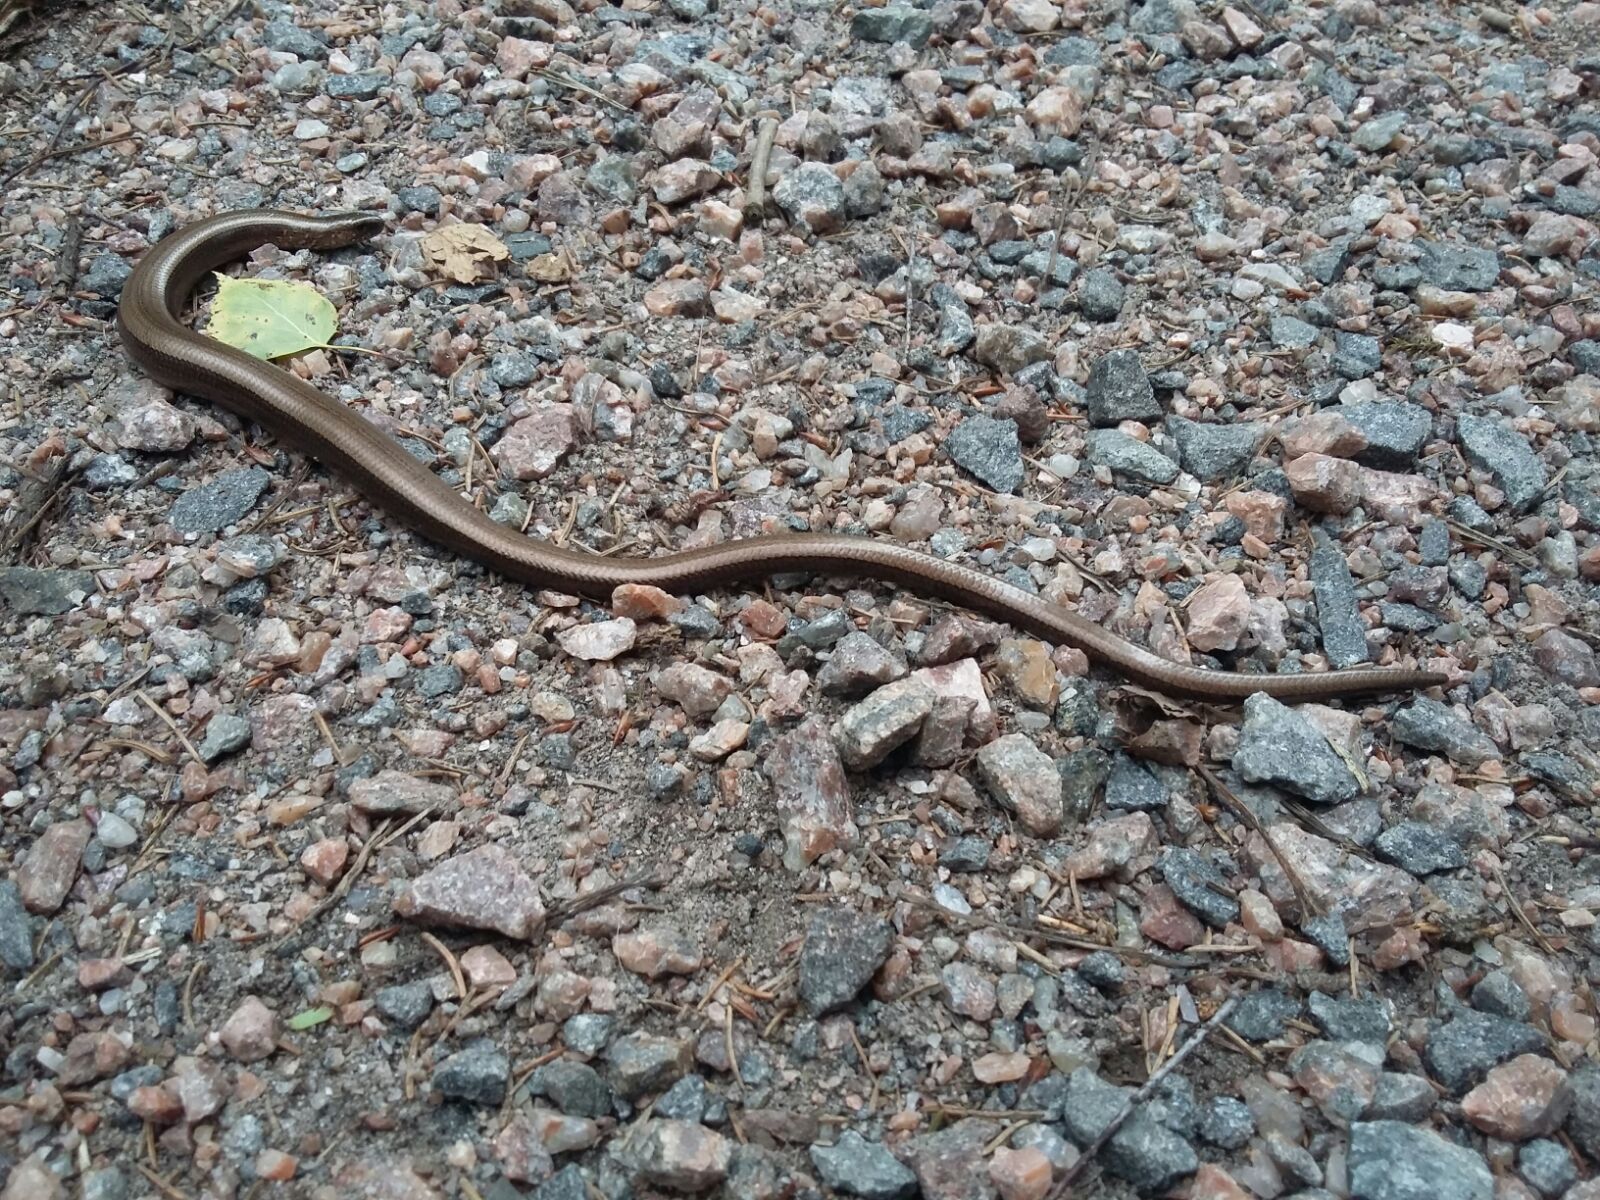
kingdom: Animalia
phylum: Chordata
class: Squamata
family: Anguidae
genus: Anguis
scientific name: Anguis colchica
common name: Slow worm
